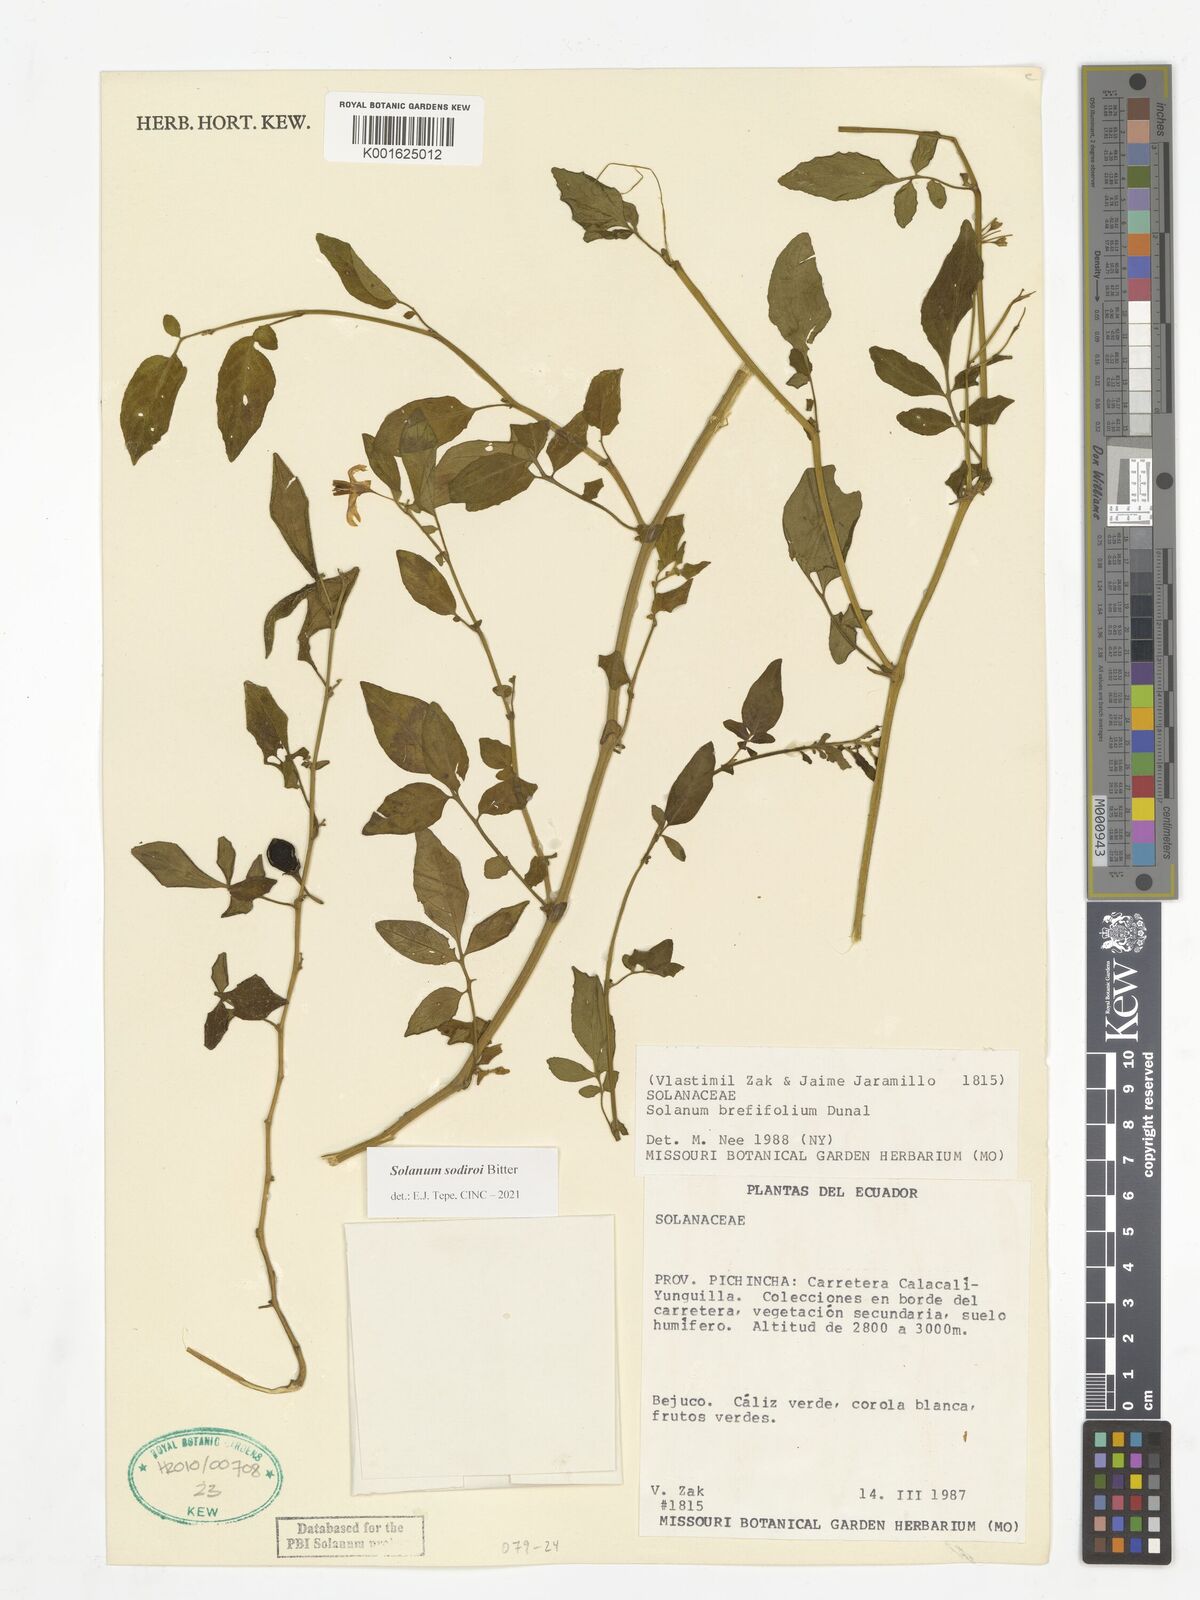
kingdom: Plantae
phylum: Tracheophyta
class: Magnoliopsida
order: Solanales
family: Solanaceae
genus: Solanum
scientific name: Solanum sodiroi
